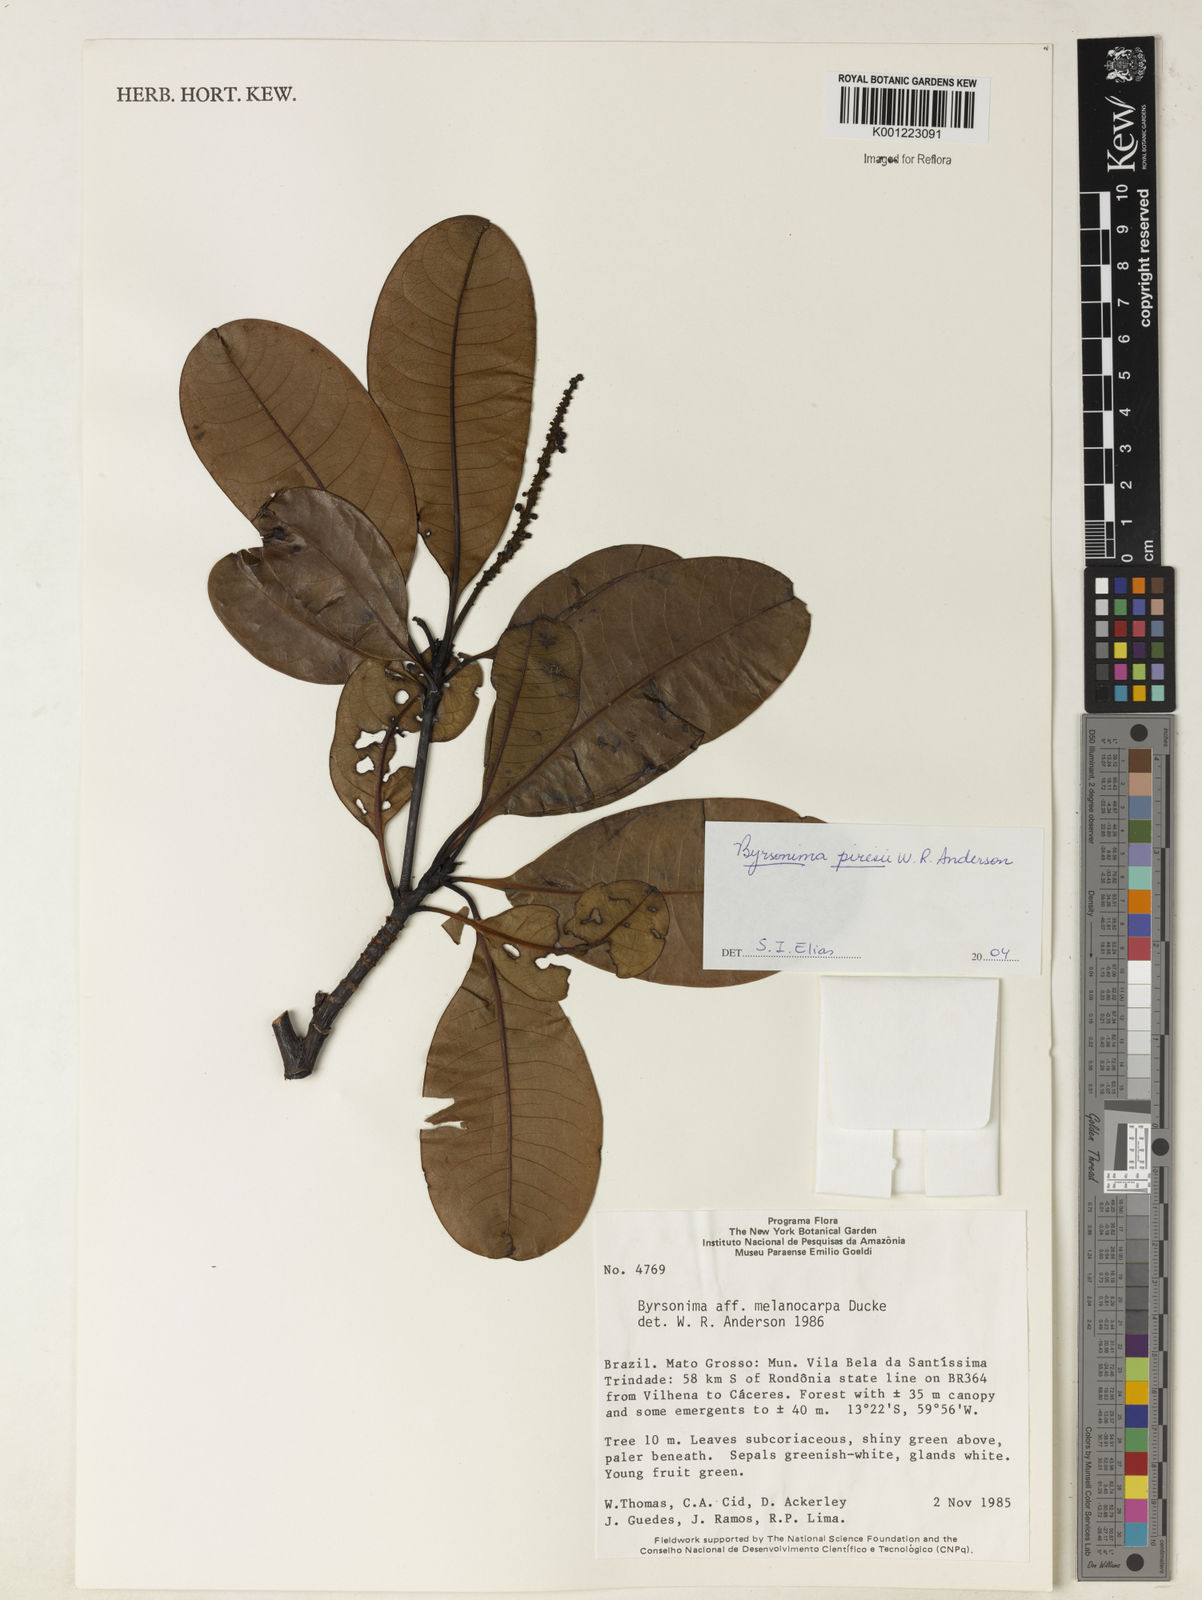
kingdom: Plantae
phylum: Tracheophyta
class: Magnoliopsida
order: Malpighiales
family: Malpighiaceae
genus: Byrsonima
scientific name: Byrsonima piresii
